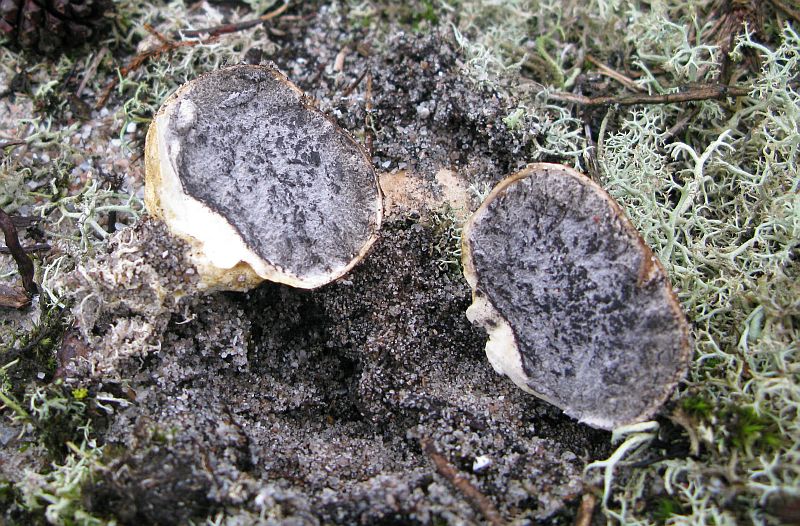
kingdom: Fungi
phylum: Basidiomycota
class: Agaricomycetes
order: Boletales
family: Sclerodermataceae
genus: Scleroderma
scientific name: Scleroderma bovista
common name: bovist-bruskbold
